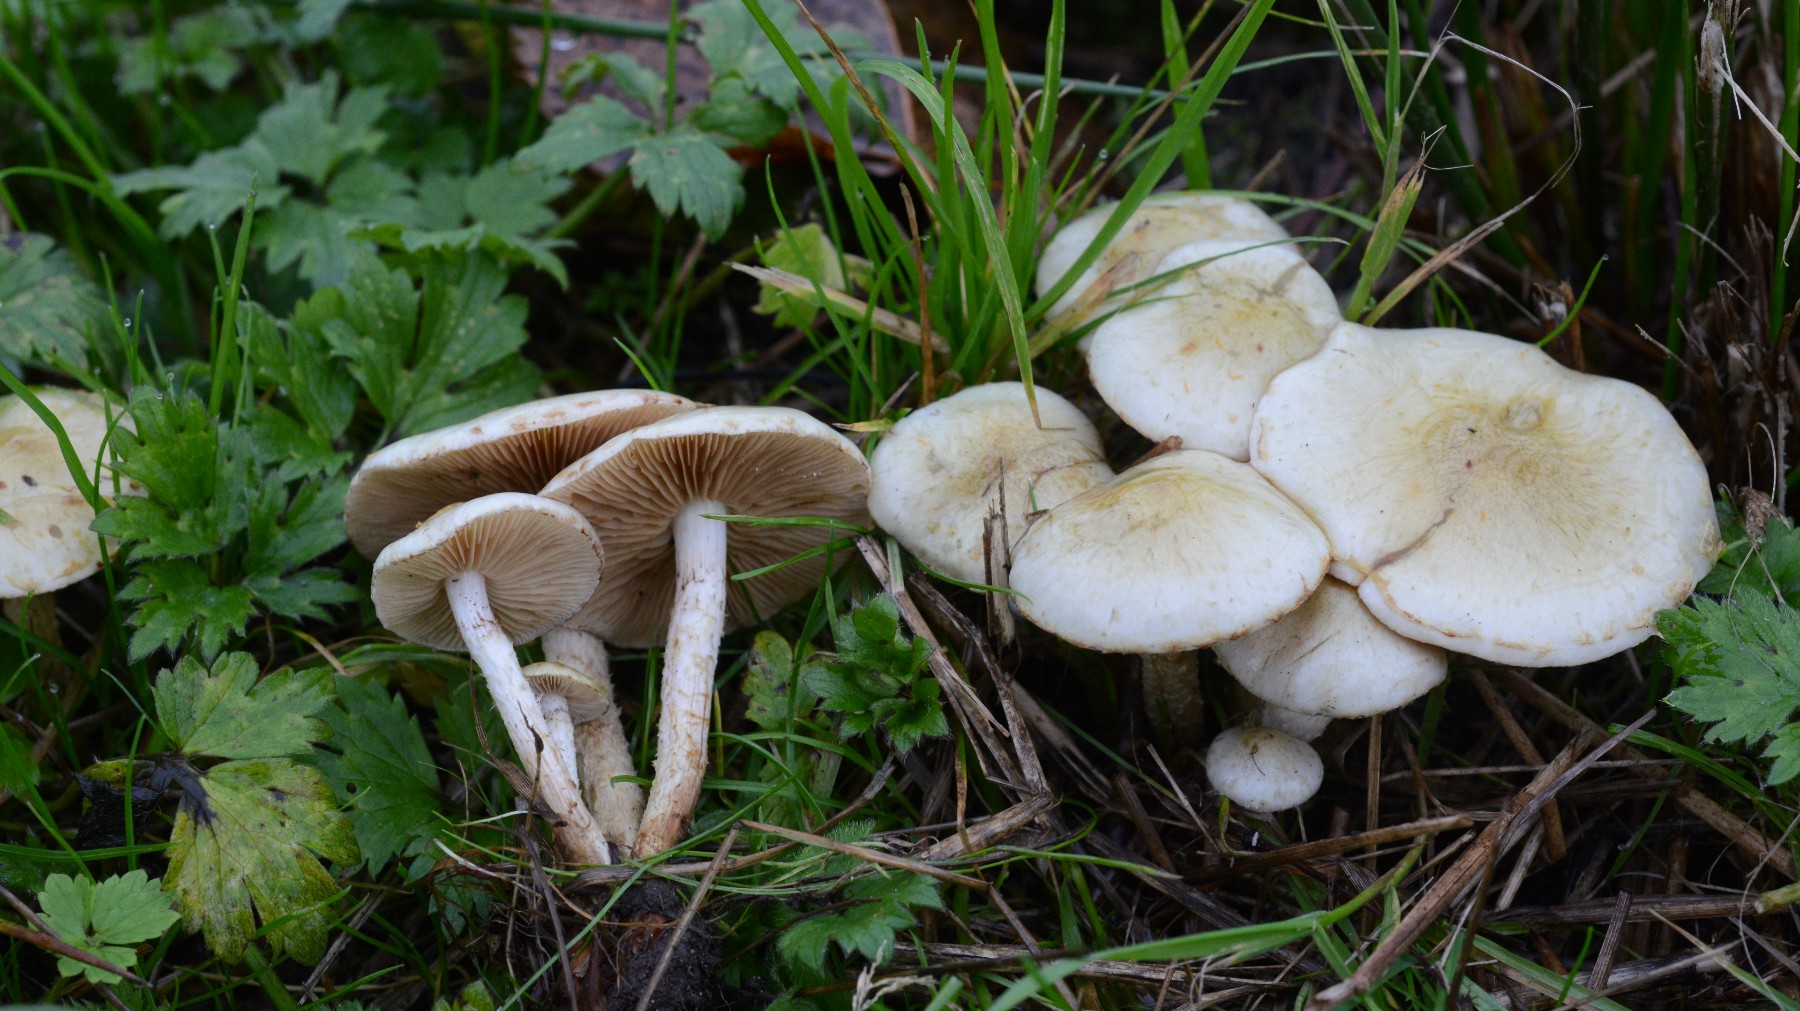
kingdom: Fungi
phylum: Basidiomycota
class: Agaricomycetes
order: Agaricales
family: Strophariaceae
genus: Pholiota
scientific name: Pholiota gummosa
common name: grøngul skælhat
